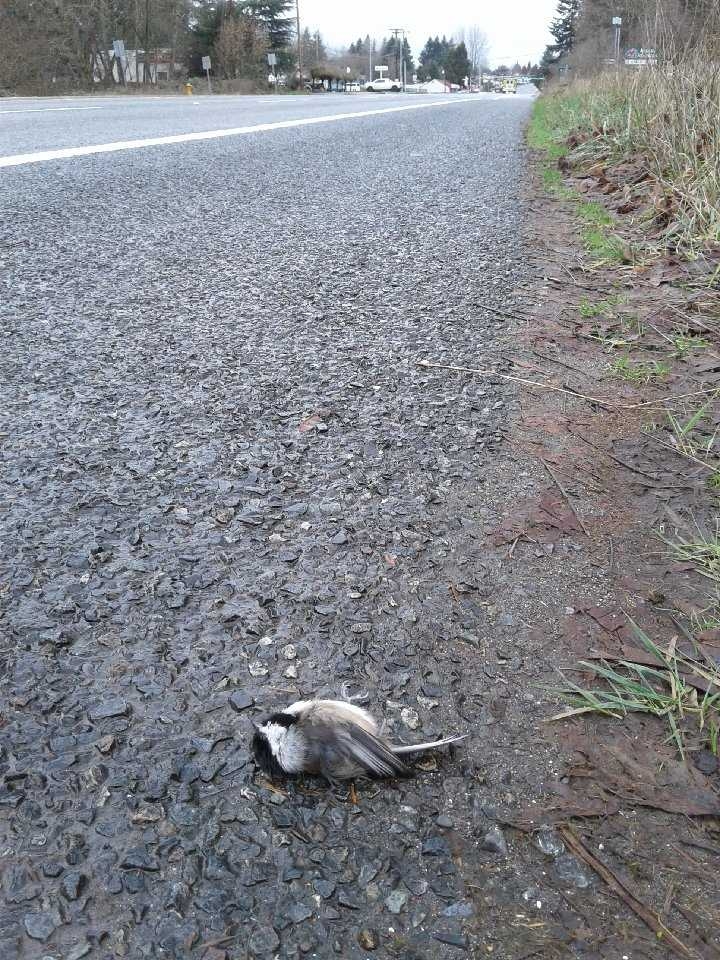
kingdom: Animalia
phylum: Chordata
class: Aves
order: Passeriformes
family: Paridae
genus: Poecile
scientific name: Poecile atricapillus
